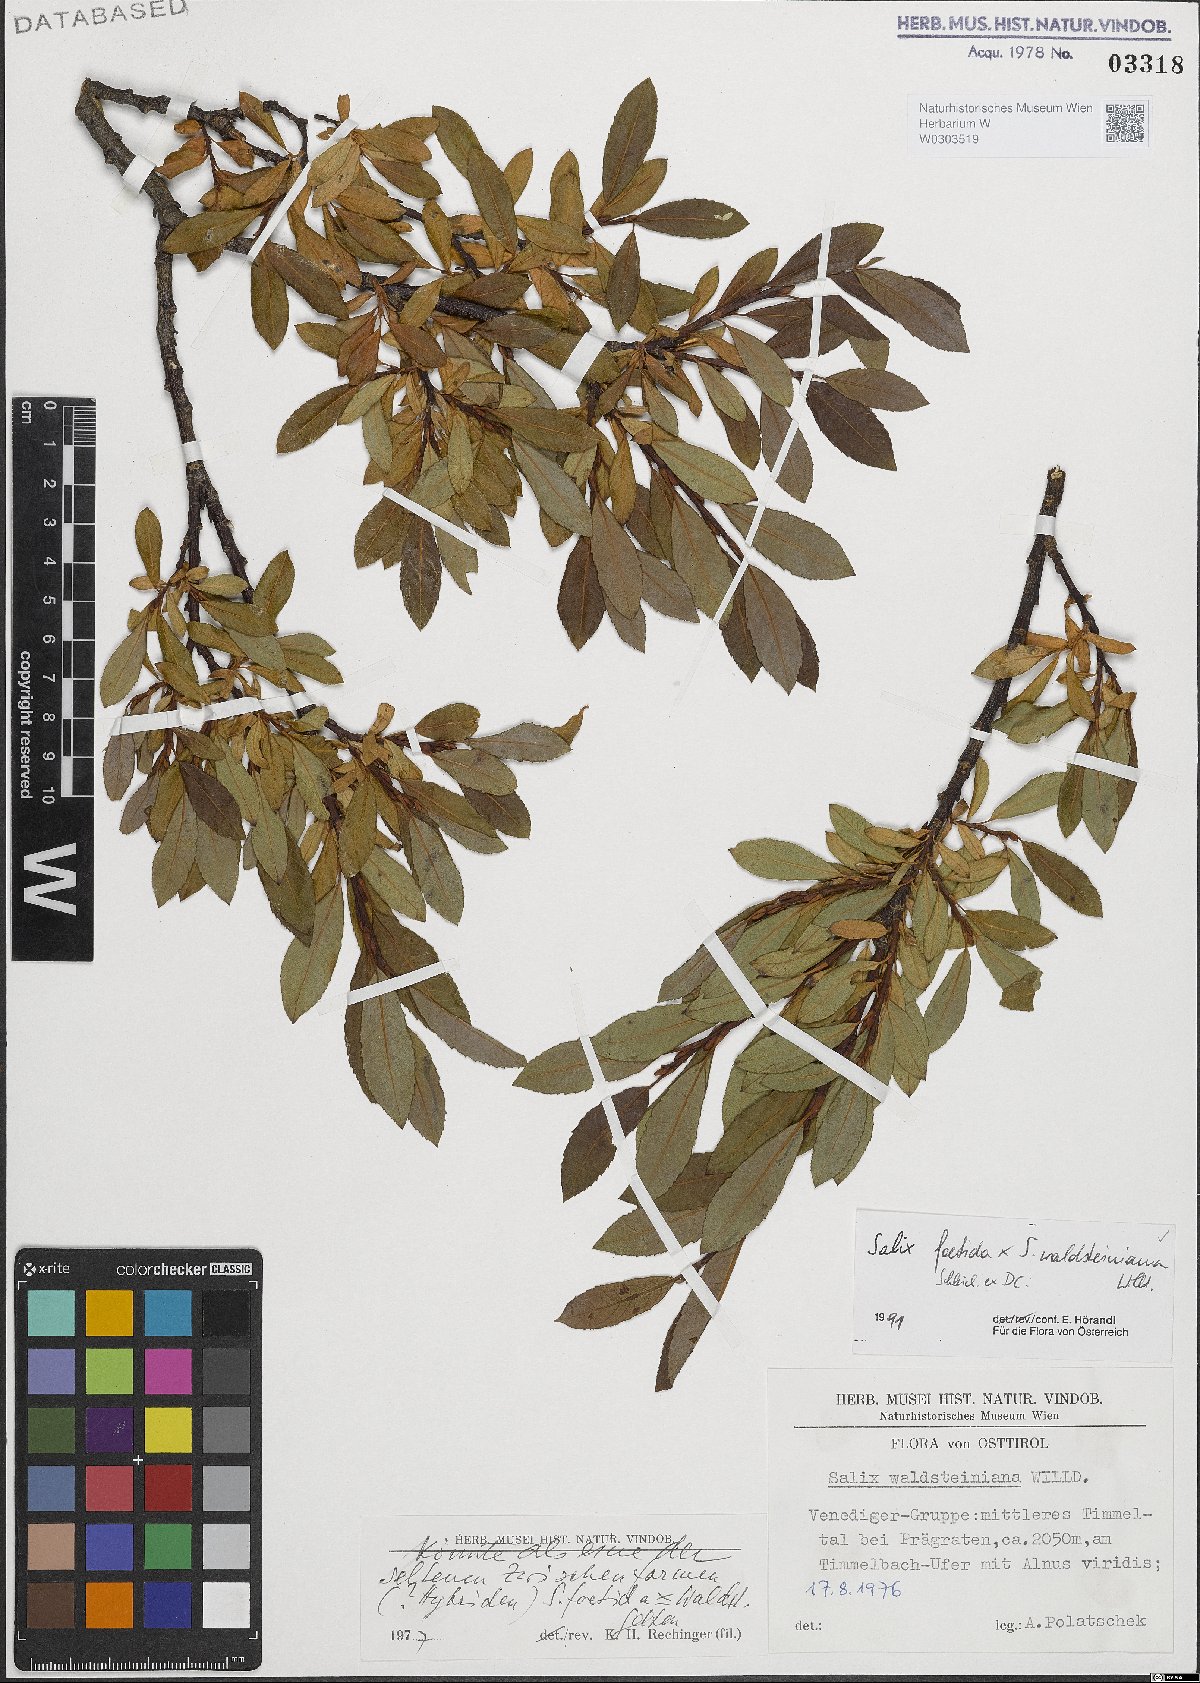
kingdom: Plantae
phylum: Tracheophyta
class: Magnoliopsida
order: Malpighiales
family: Salicaceae
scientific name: Salicaceae
